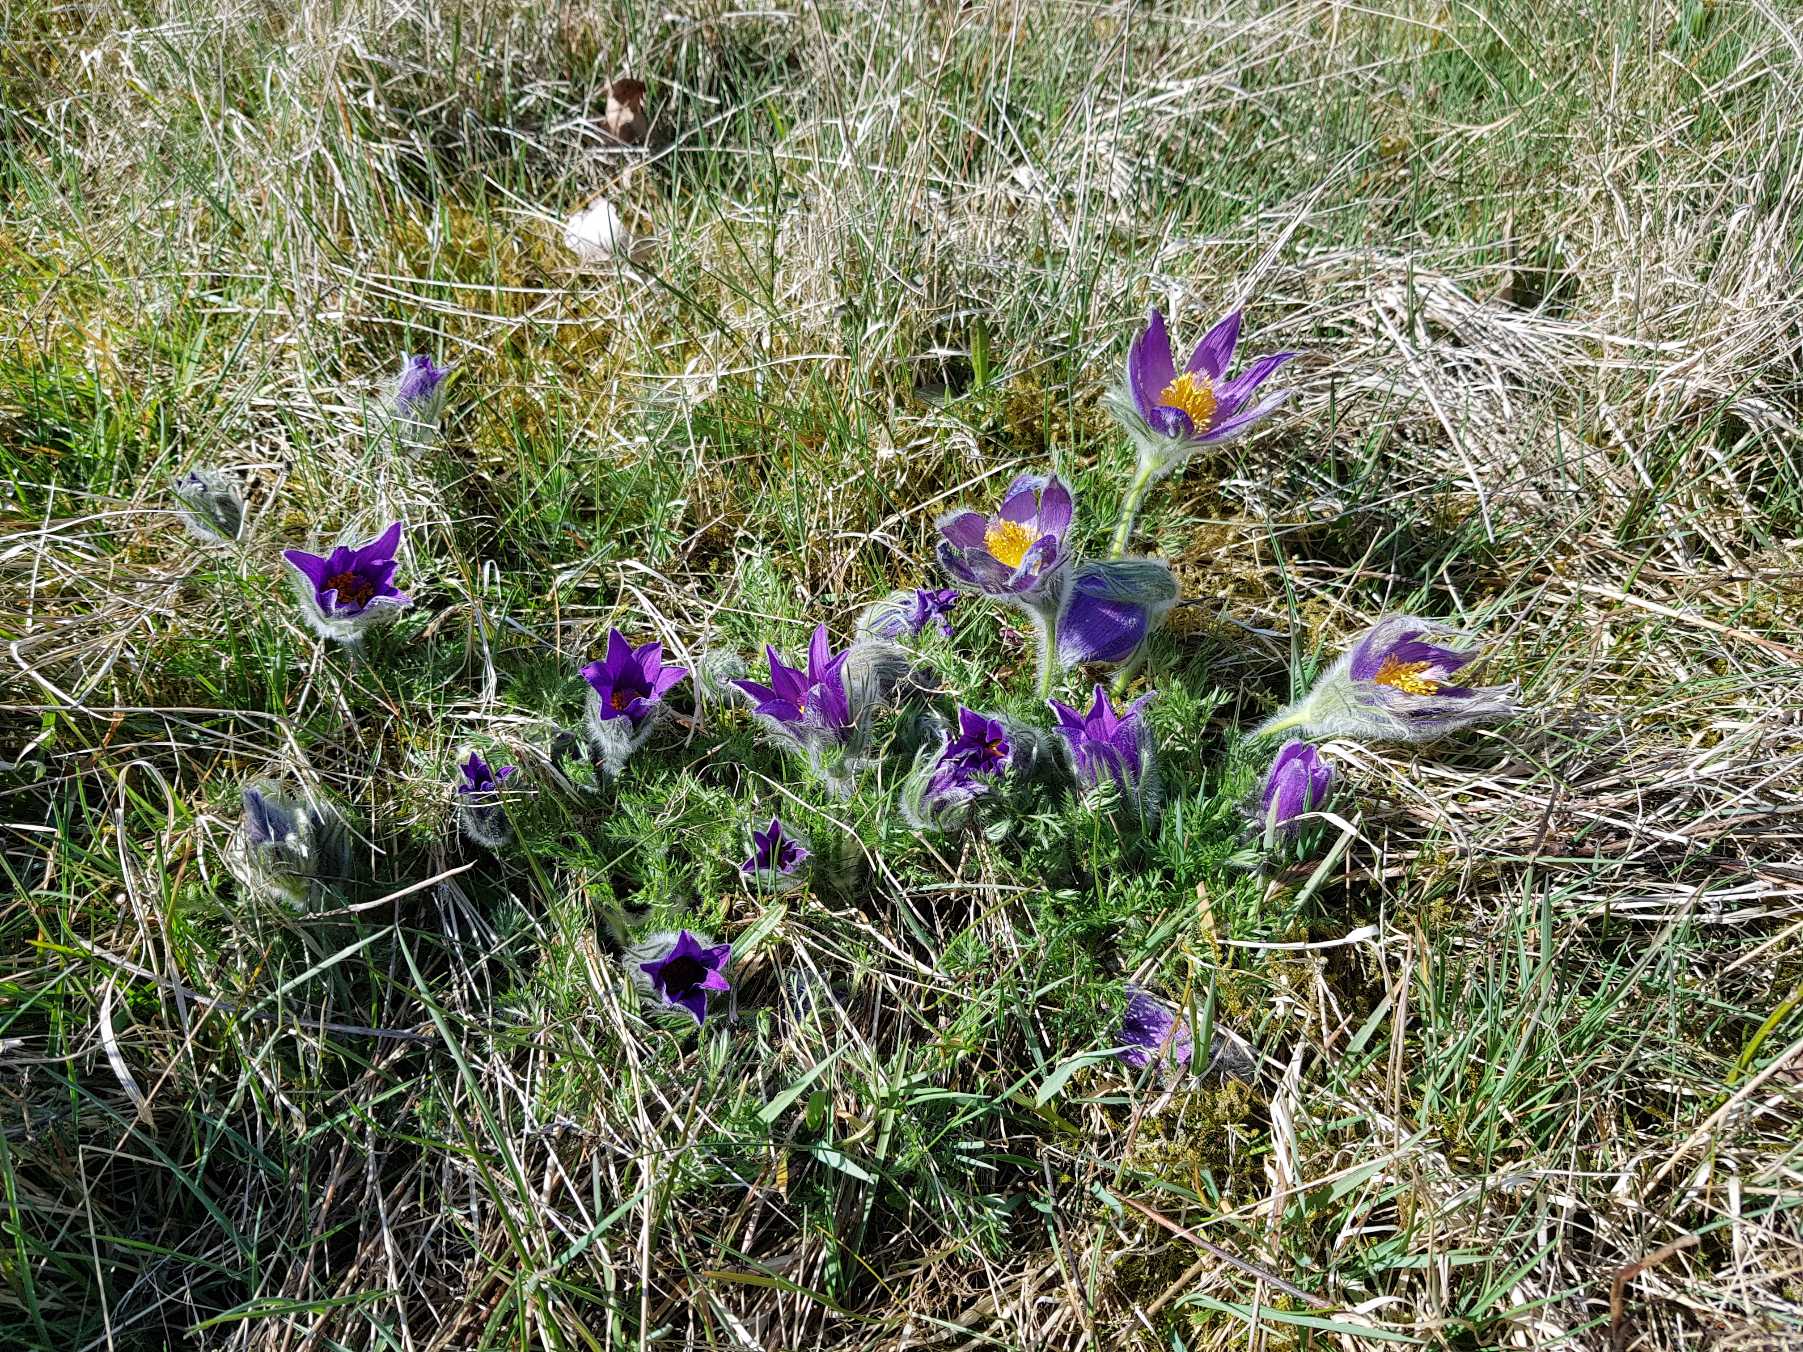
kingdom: Plantae
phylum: Tracheophyta
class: Magnoliopsida
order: Ranunculales
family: Ranunculaceae
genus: Pulsatilla
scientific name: Pulsatilla vulgaris
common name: Opret kobjælde
